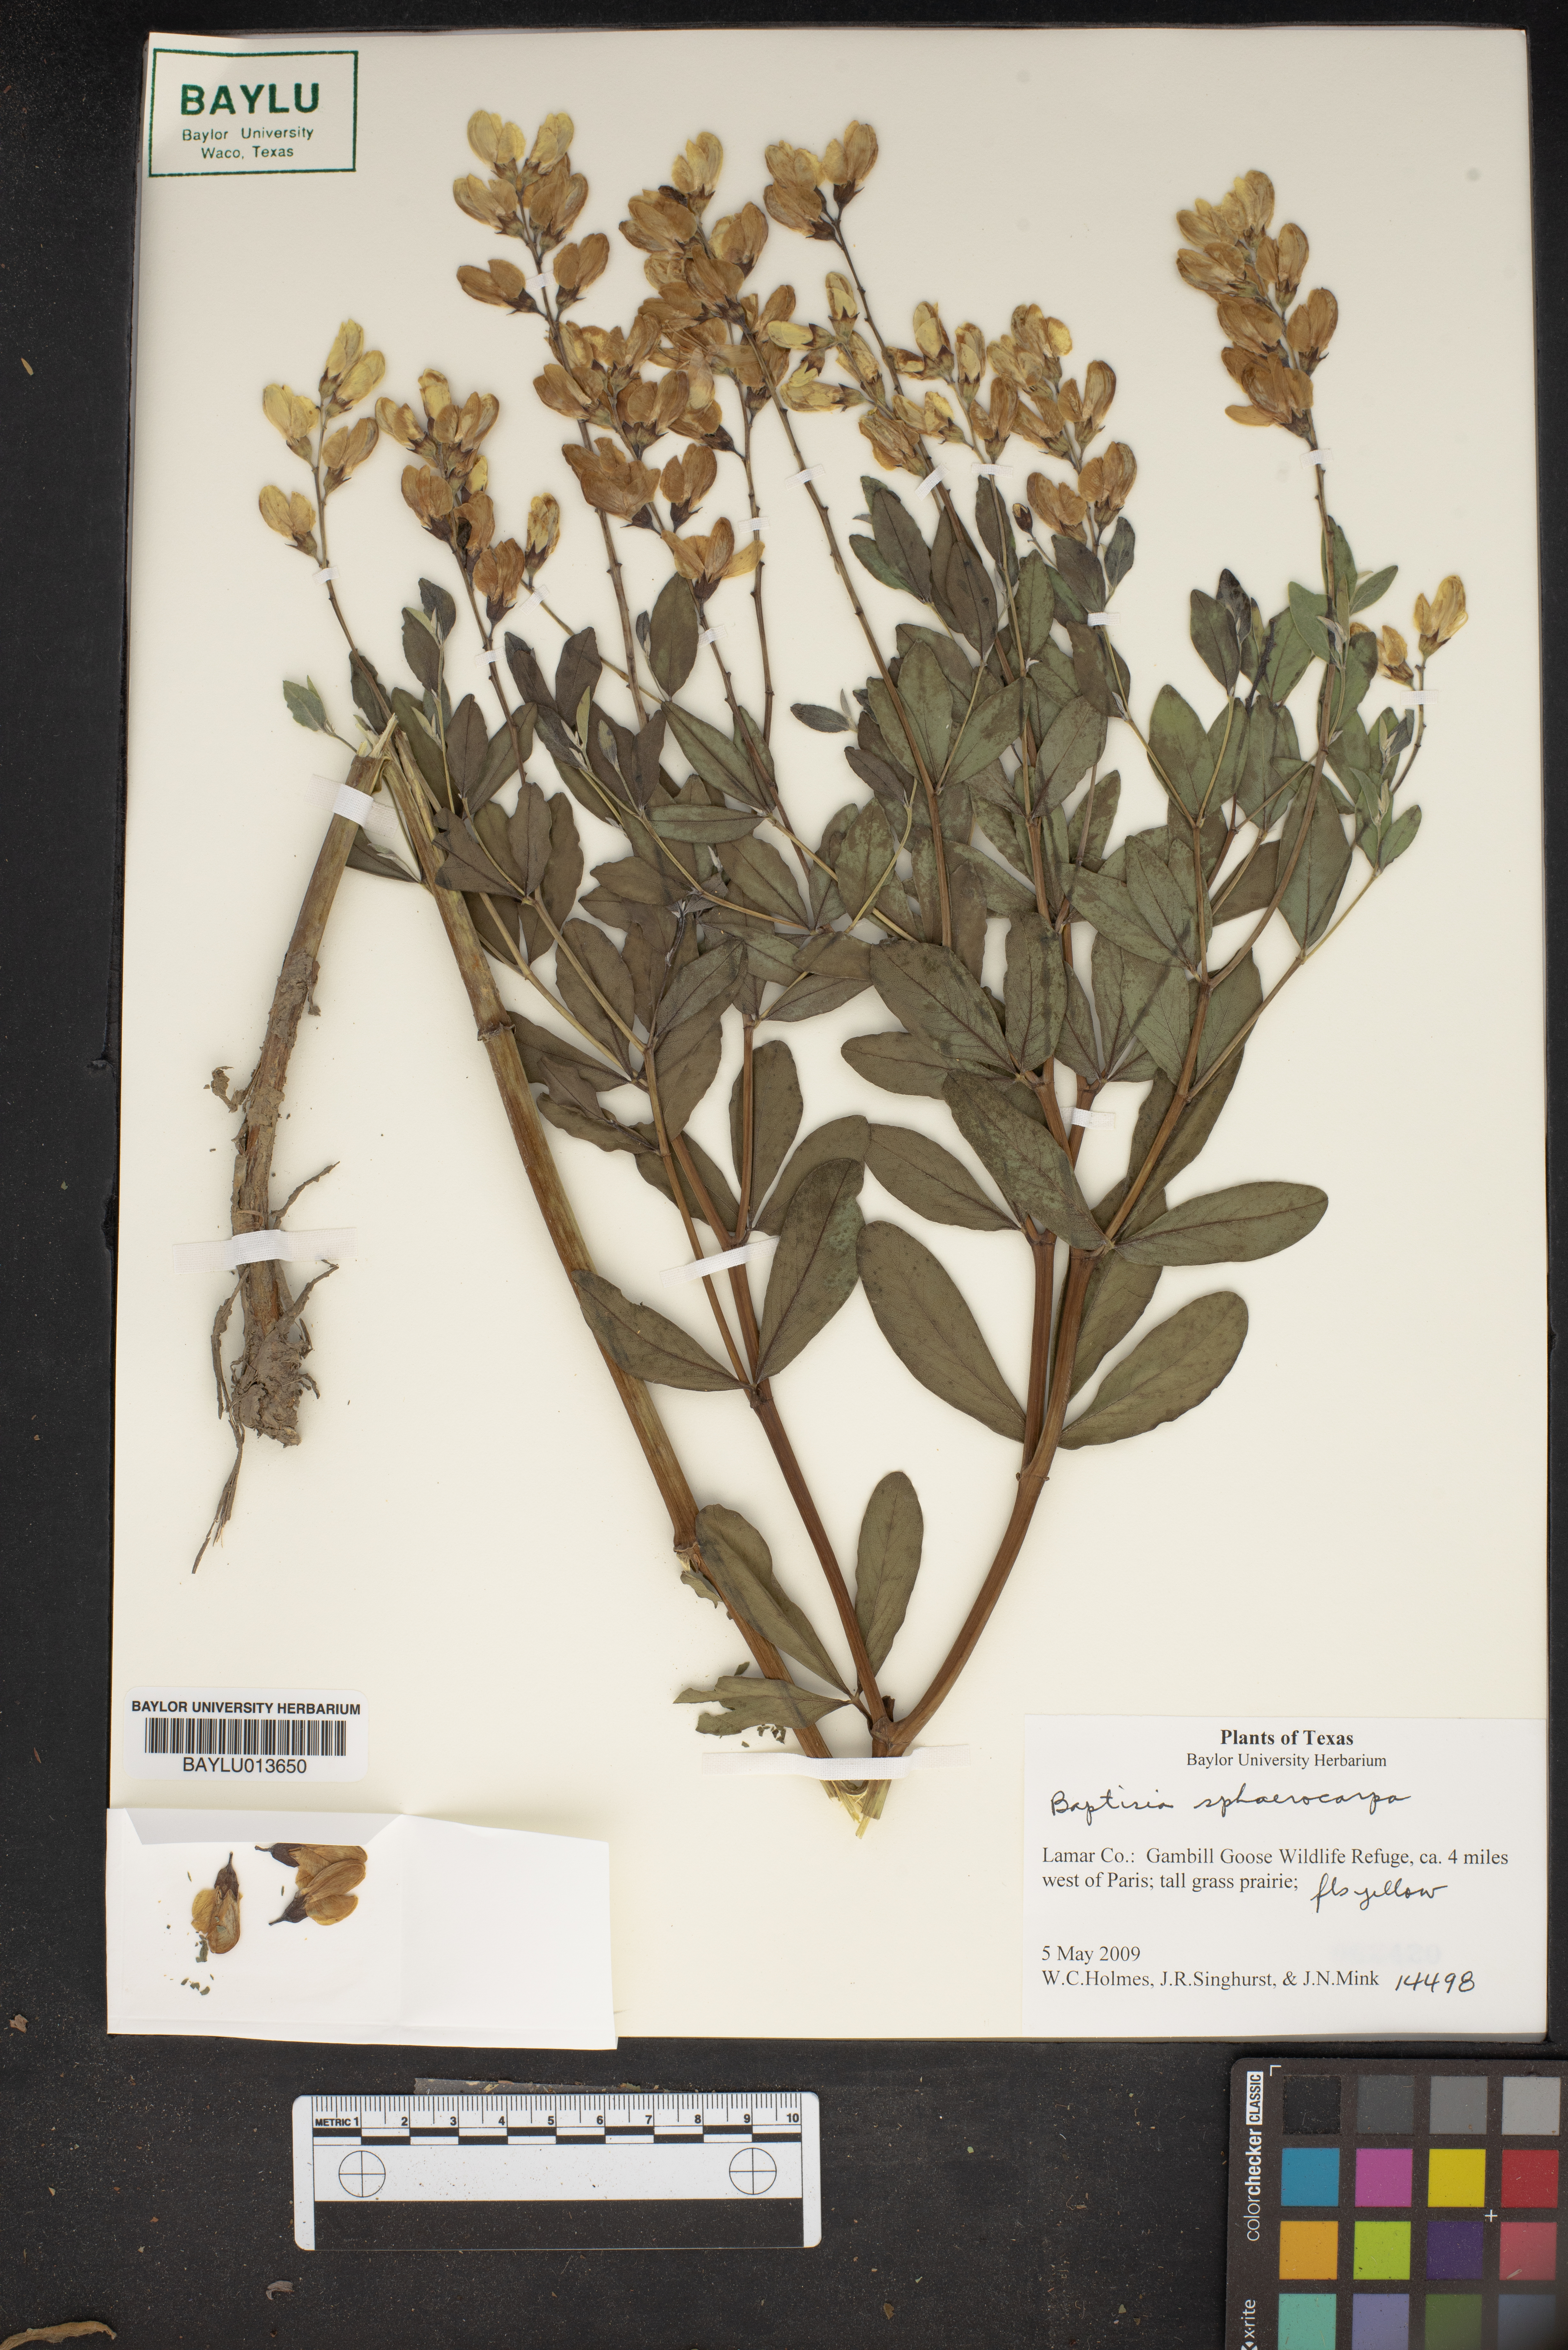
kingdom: Plantae
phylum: Tracheophyta
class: Magnoliopsida
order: Fabales
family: Fabaceae
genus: Baptisia
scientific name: Baptisia sphaerocarpa
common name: Round wild indigo
